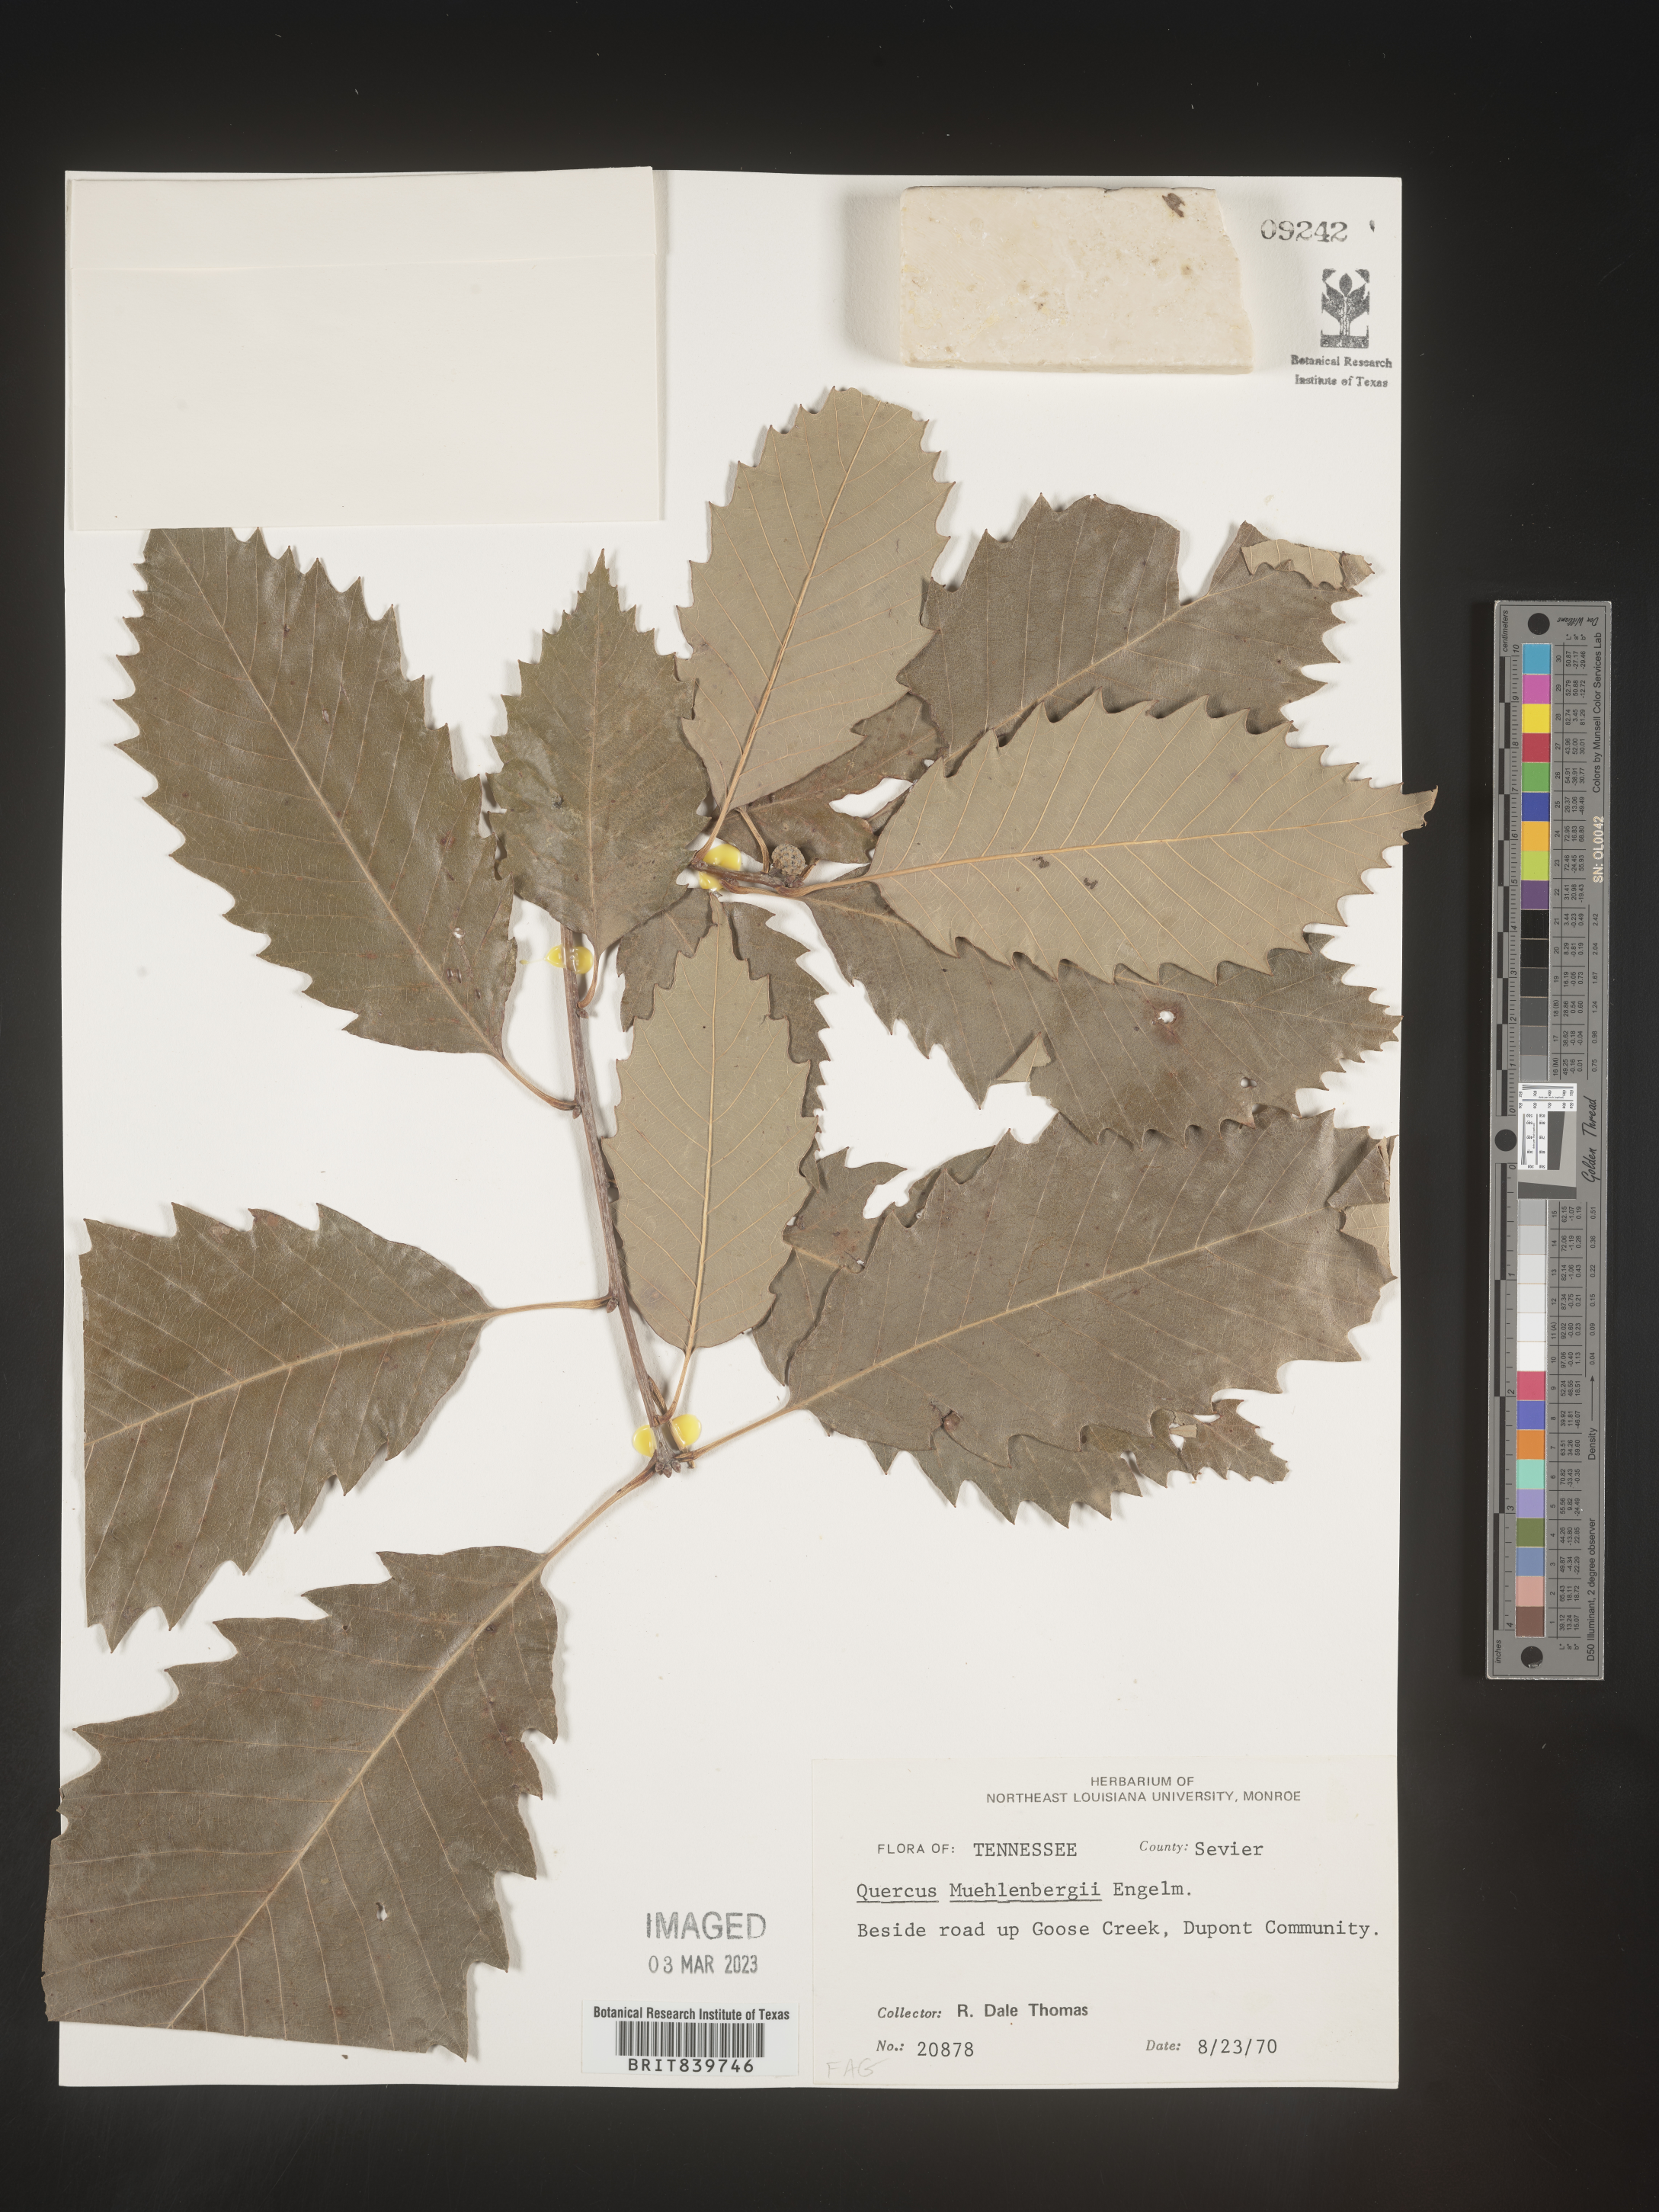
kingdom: Plantae
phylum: Tracheophyta
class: Magnoliopsida
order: Fagales
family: Fagaceae
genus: Quercus
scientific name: Quercus muehlenbergii
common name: Chinkapin oak
